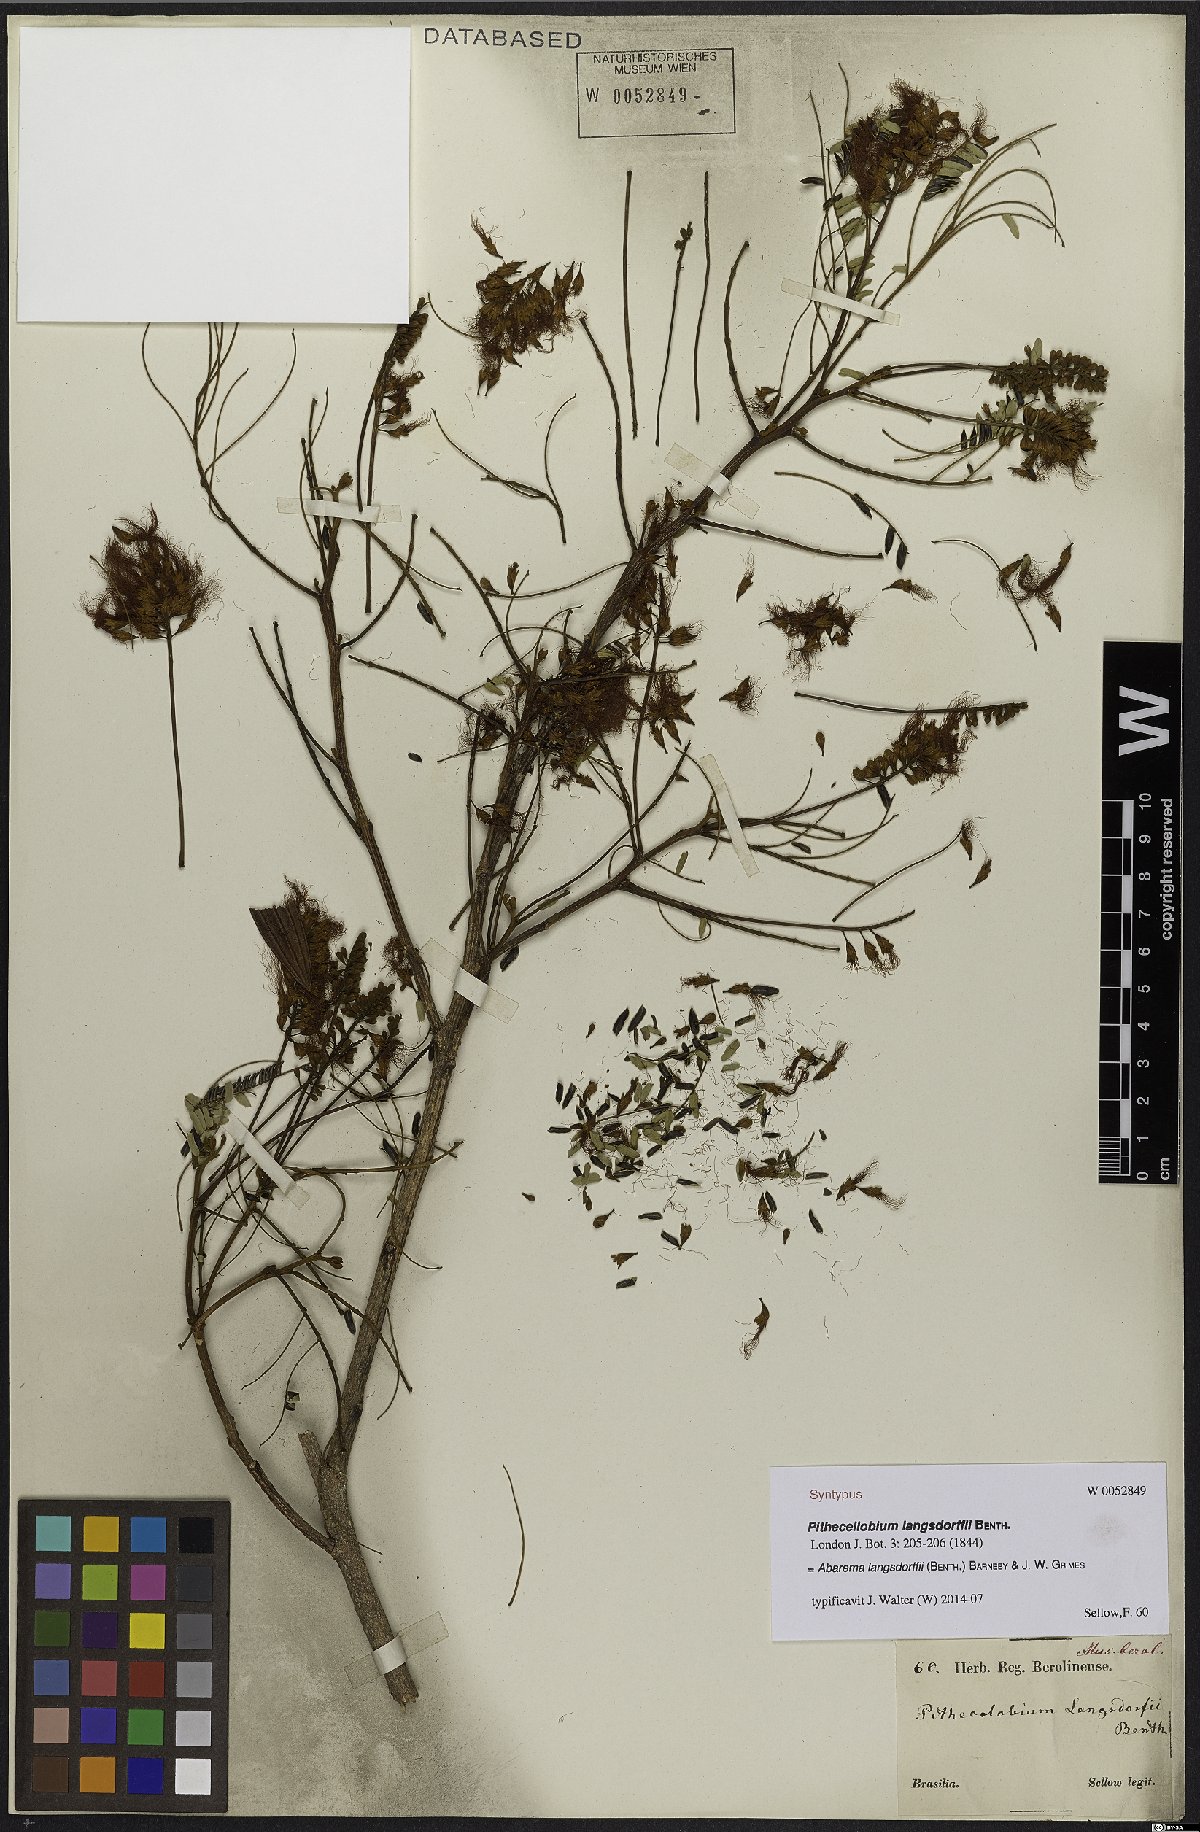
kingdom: Plantae
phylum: Tracheophyta
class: Magnoliopsida
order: Fabales
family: Fabaceae
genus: Jupunba
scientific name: Jupunba langsdorffii
